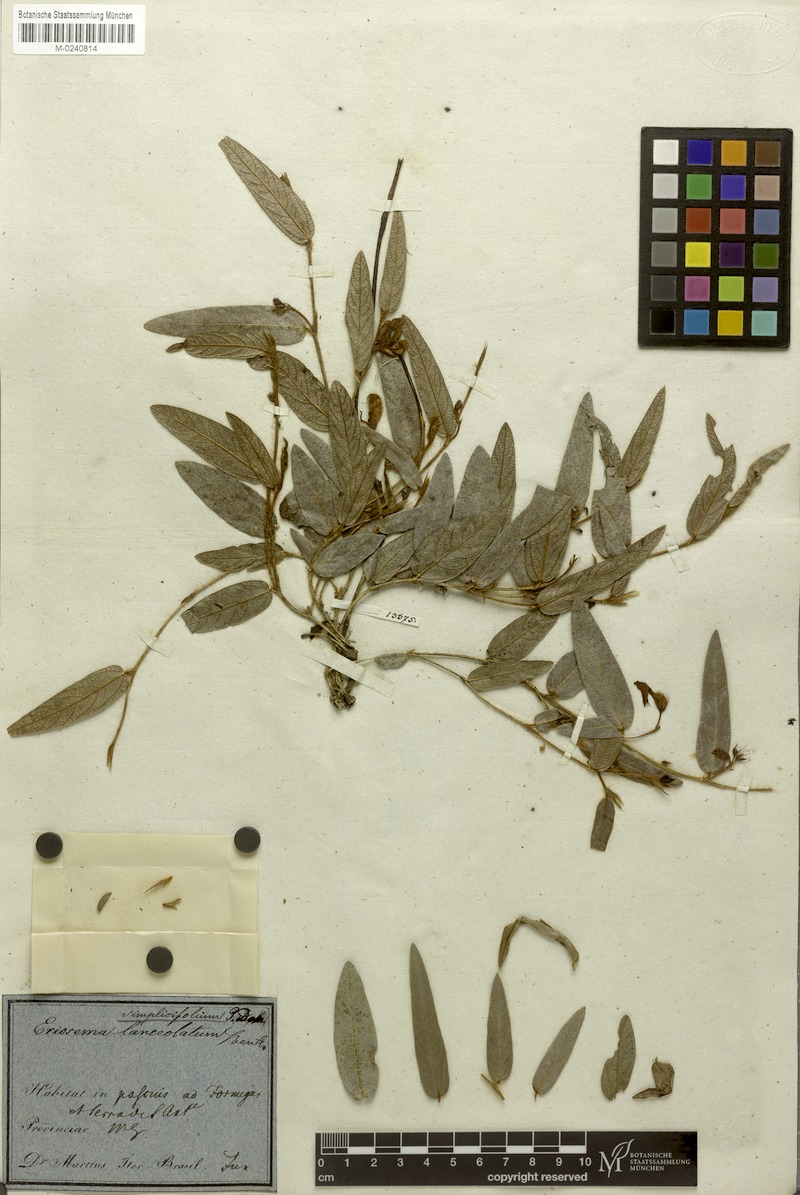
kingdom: Plantae
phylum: Tracheophyta
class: Magnoliopsida
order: Fabales
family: Fabaceae
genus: Eriosema
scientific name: Eriosema simplicifolium
